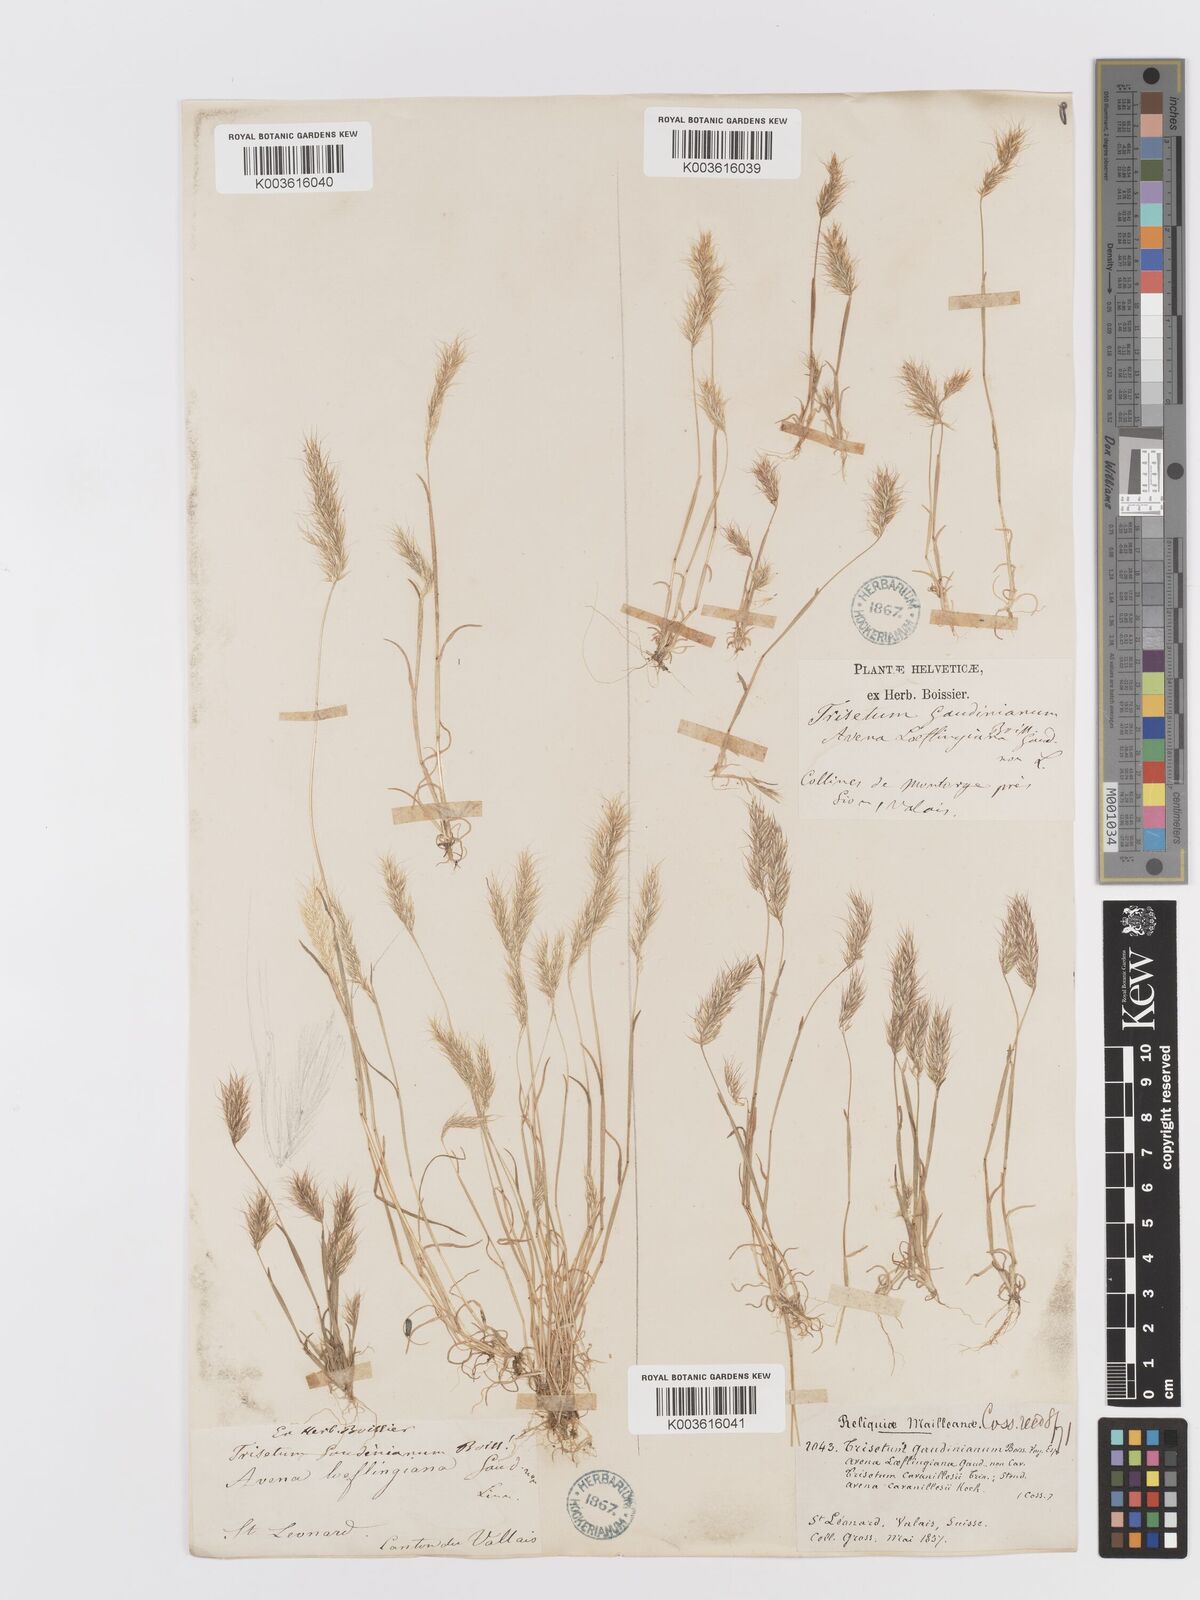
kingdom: Plantae
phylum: Tracheophyta
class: Liliopsida
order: Poales
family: Poaceae
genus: Trisetaria
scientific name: Trisetaria loeflingiana
